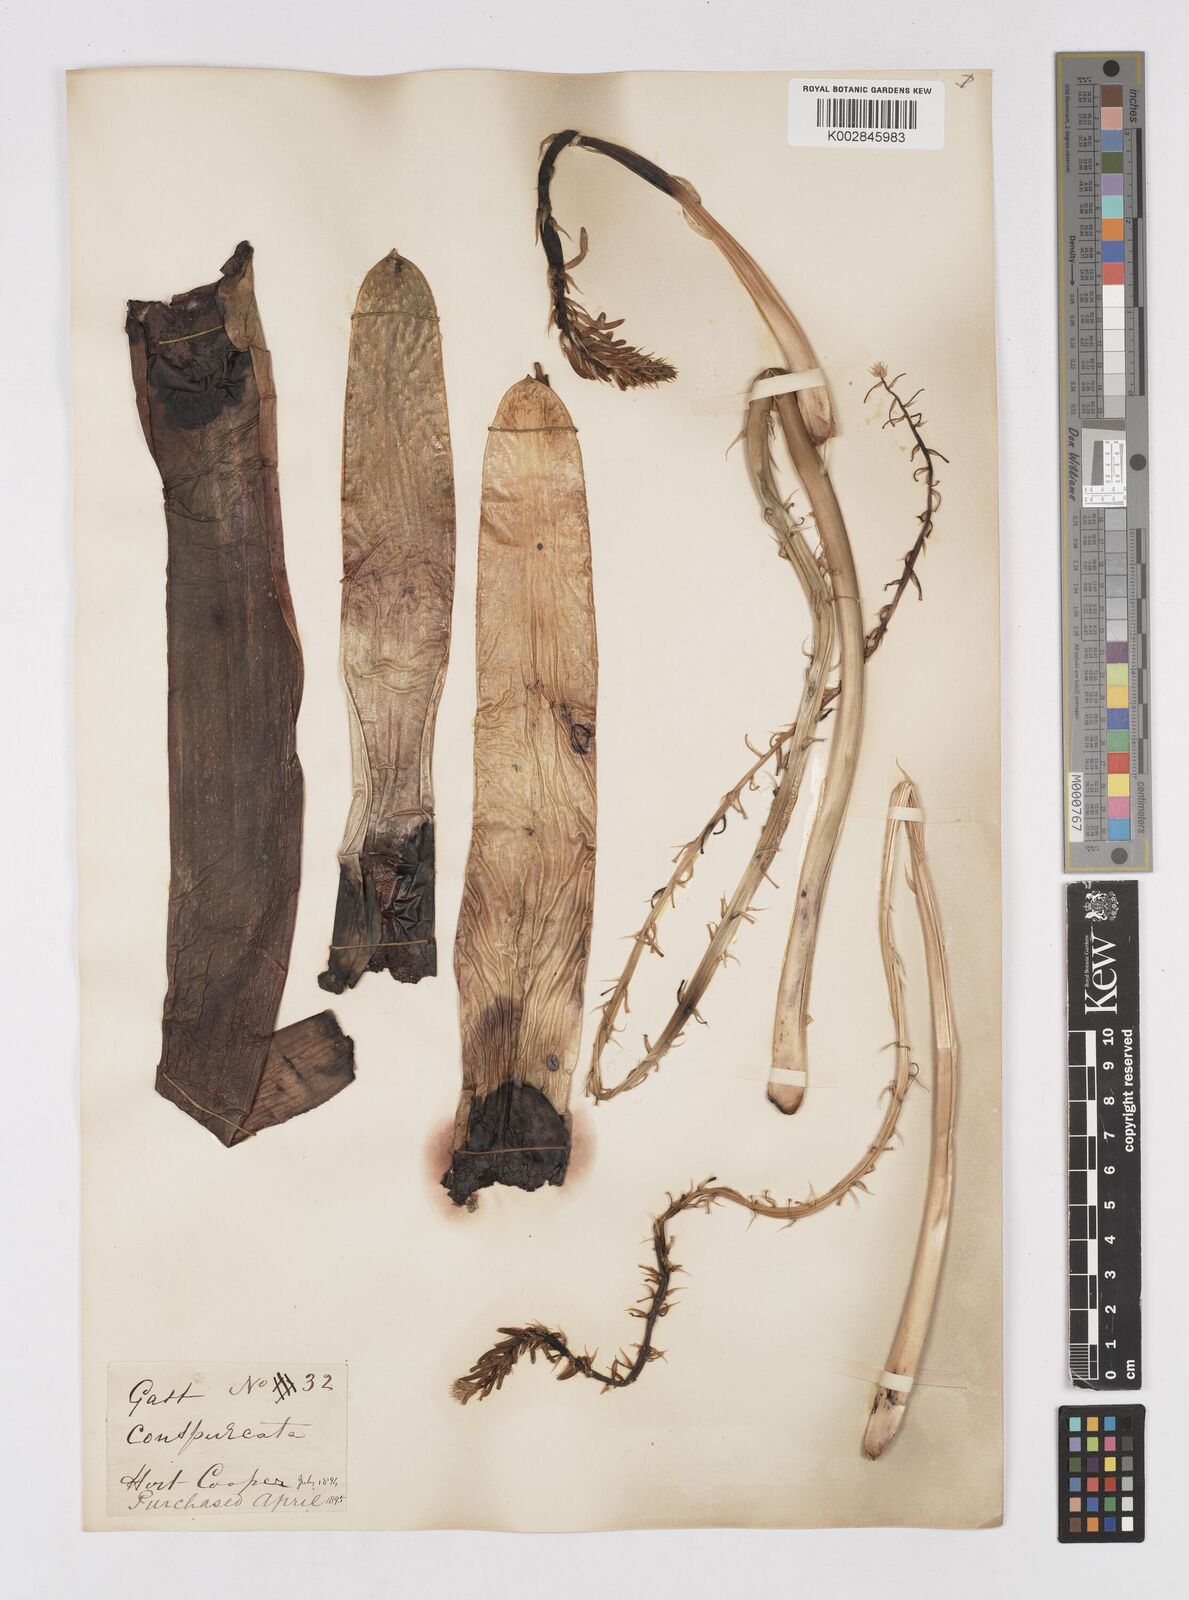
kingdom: Plantae
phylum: Tracheophyta
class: Liliopsida
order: Asparagales
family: Asphodelaceae
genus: Gasteria
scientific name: Gasteria disticha
